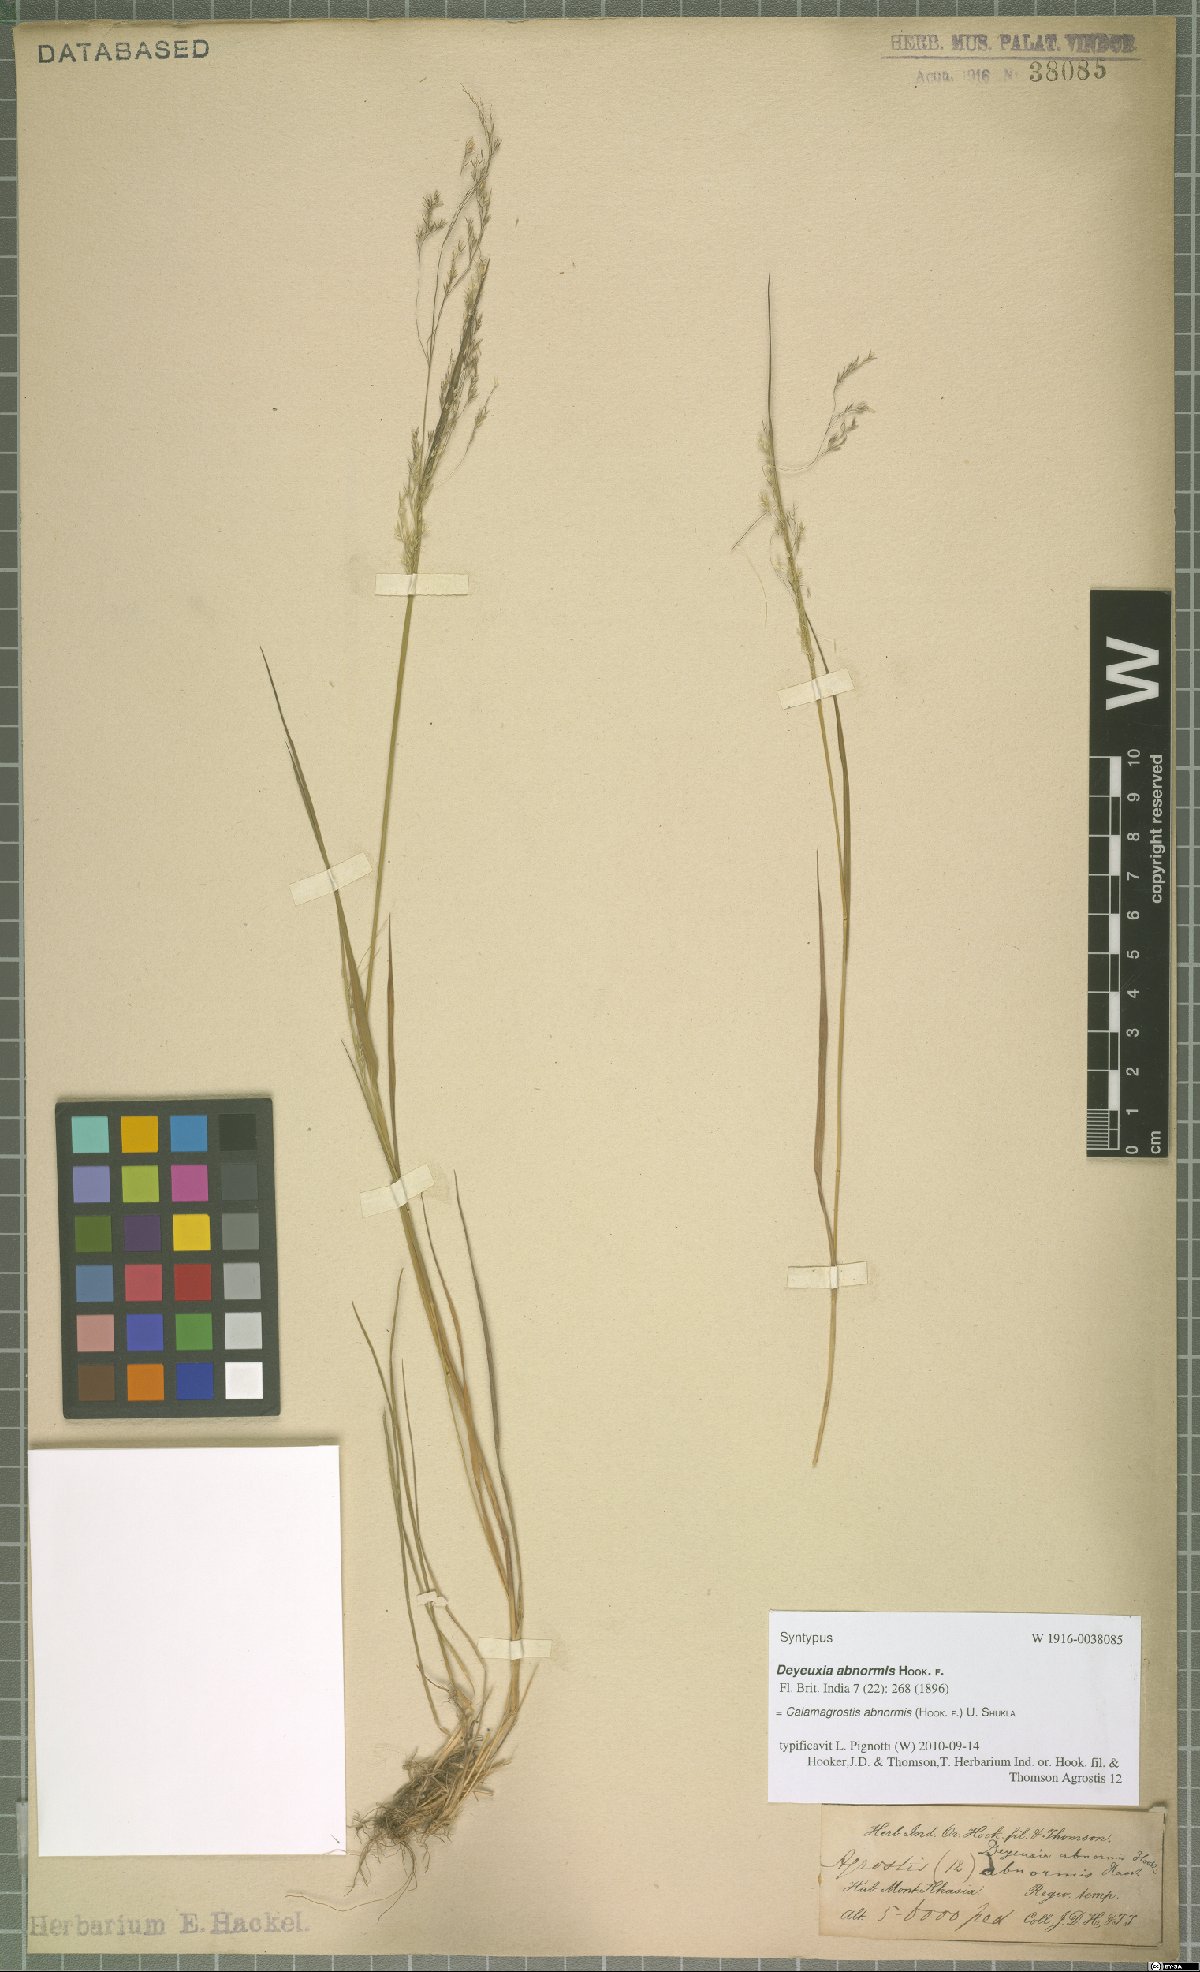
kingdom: Plantae
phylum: Tracheophyta
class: Liliopsida
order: Poales
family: Poaceae
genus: Agrostis
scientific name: Agrostis zenkeri
